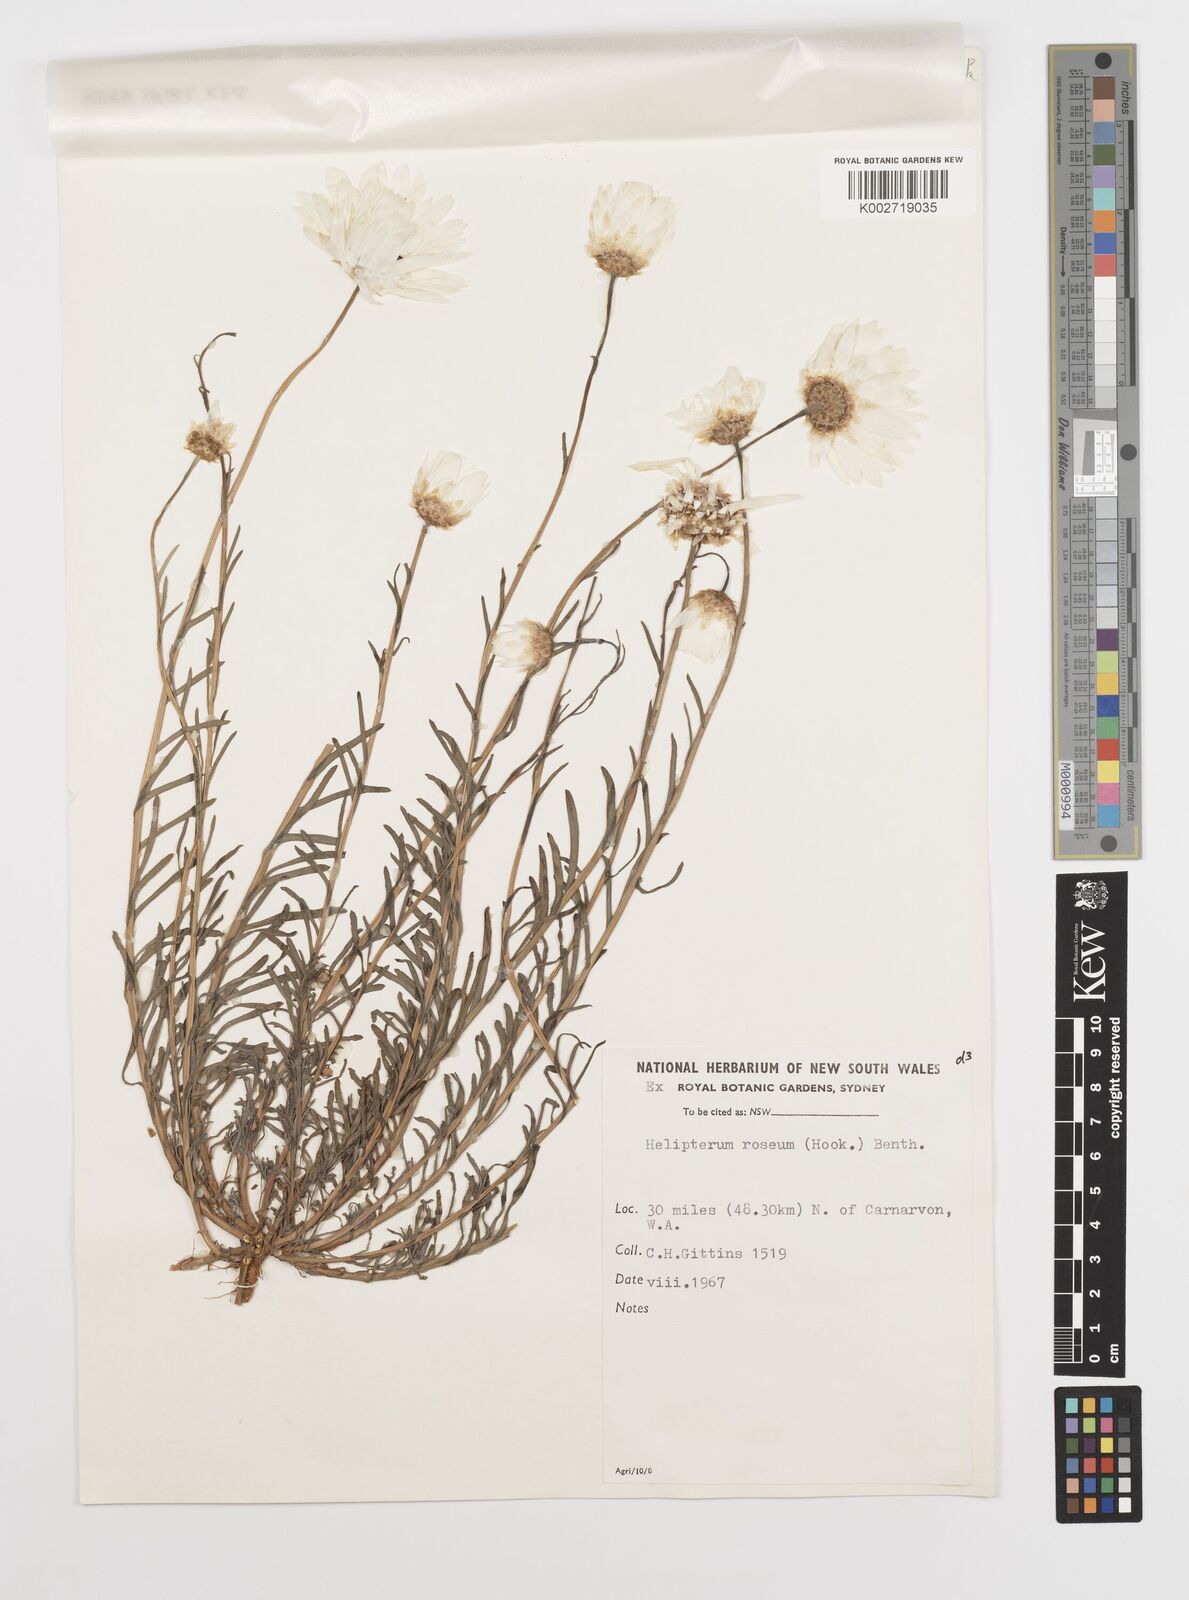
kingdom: Plantae
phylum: Tracheophyta
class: Magnoliopsida
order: Asterales
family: Asteraceae
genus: Rhodanthe
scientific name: Rhodanthe chlorocephala
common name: Rosy sunray
